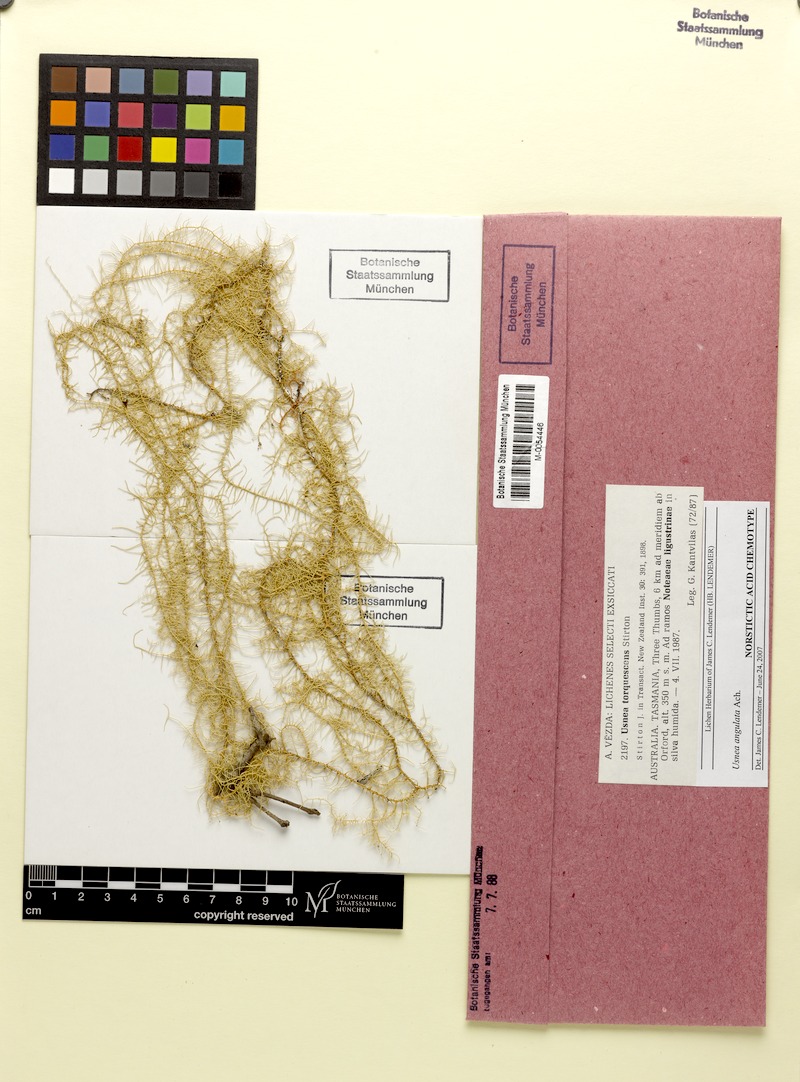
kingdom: Fungi
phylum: Ascomycota
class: Lecanoromycetes
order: Lecanorales
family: Parmeliaceae
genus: Usnea
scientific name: Usnea angulata
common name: Old-man’s beard lichen
